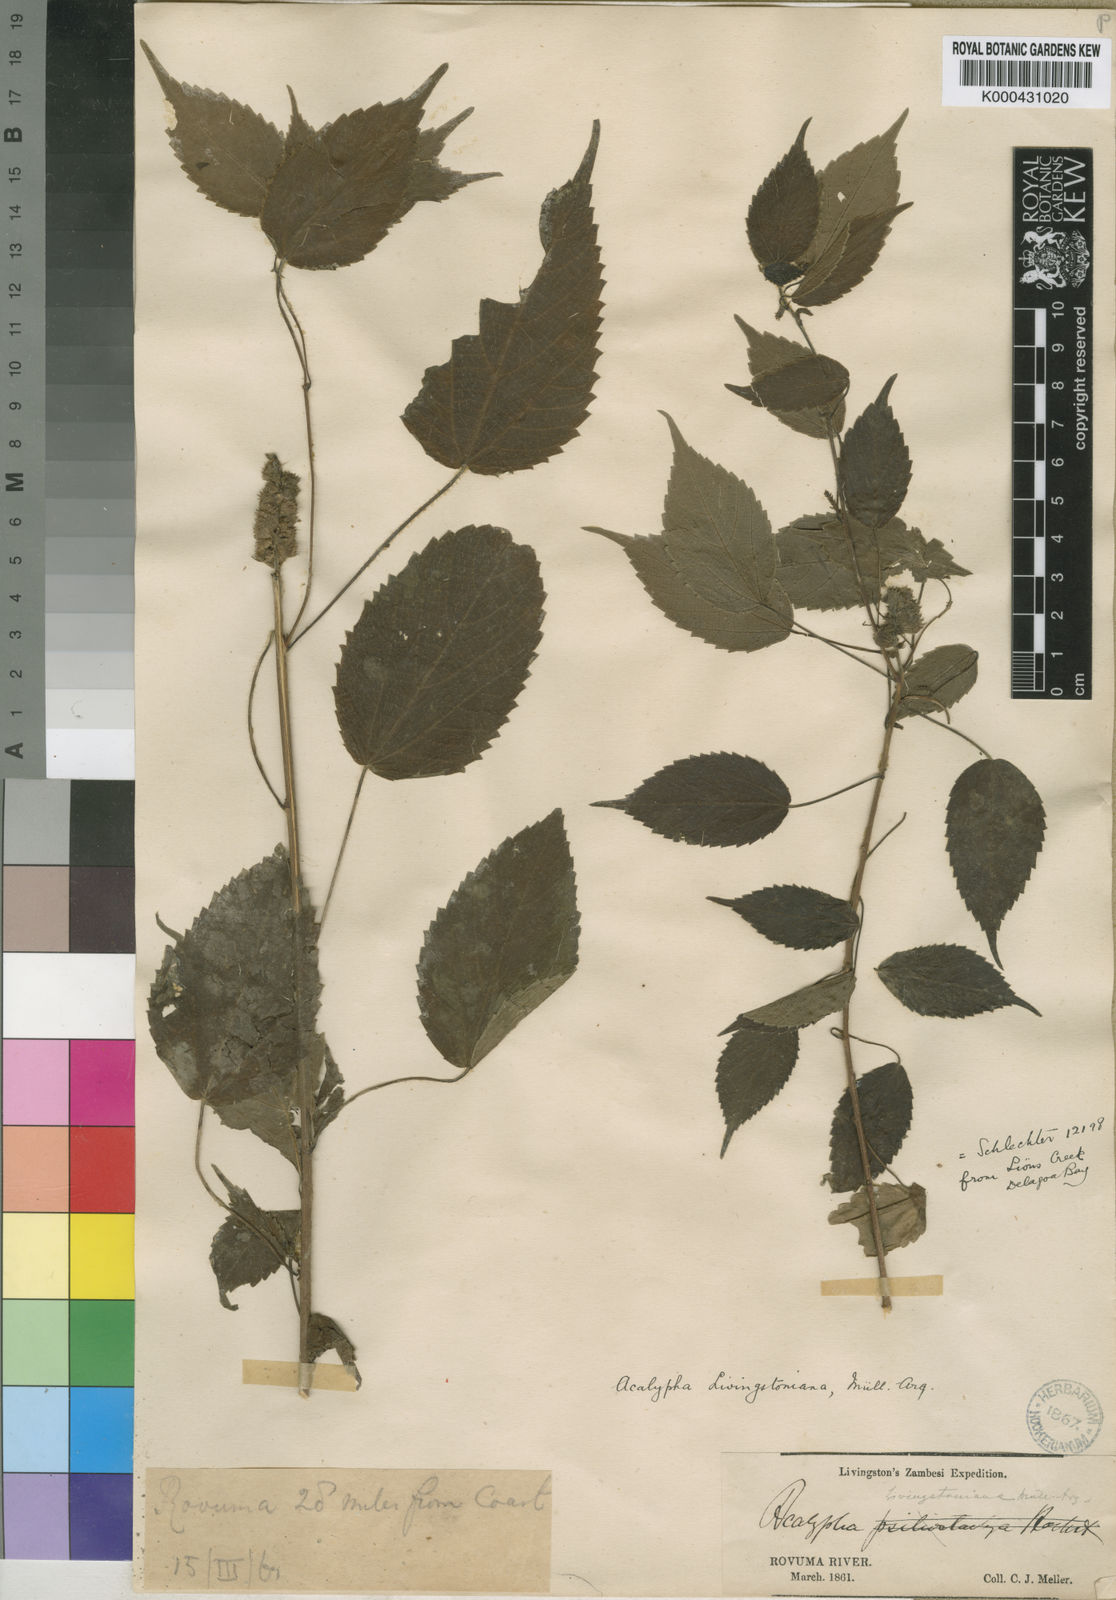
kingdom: Plantae
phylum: Tracheophyta
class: Magnoliopsida
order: Malpighiales
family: Euphorbiaceae
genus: Acalypha
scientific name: Acalypha ornata
